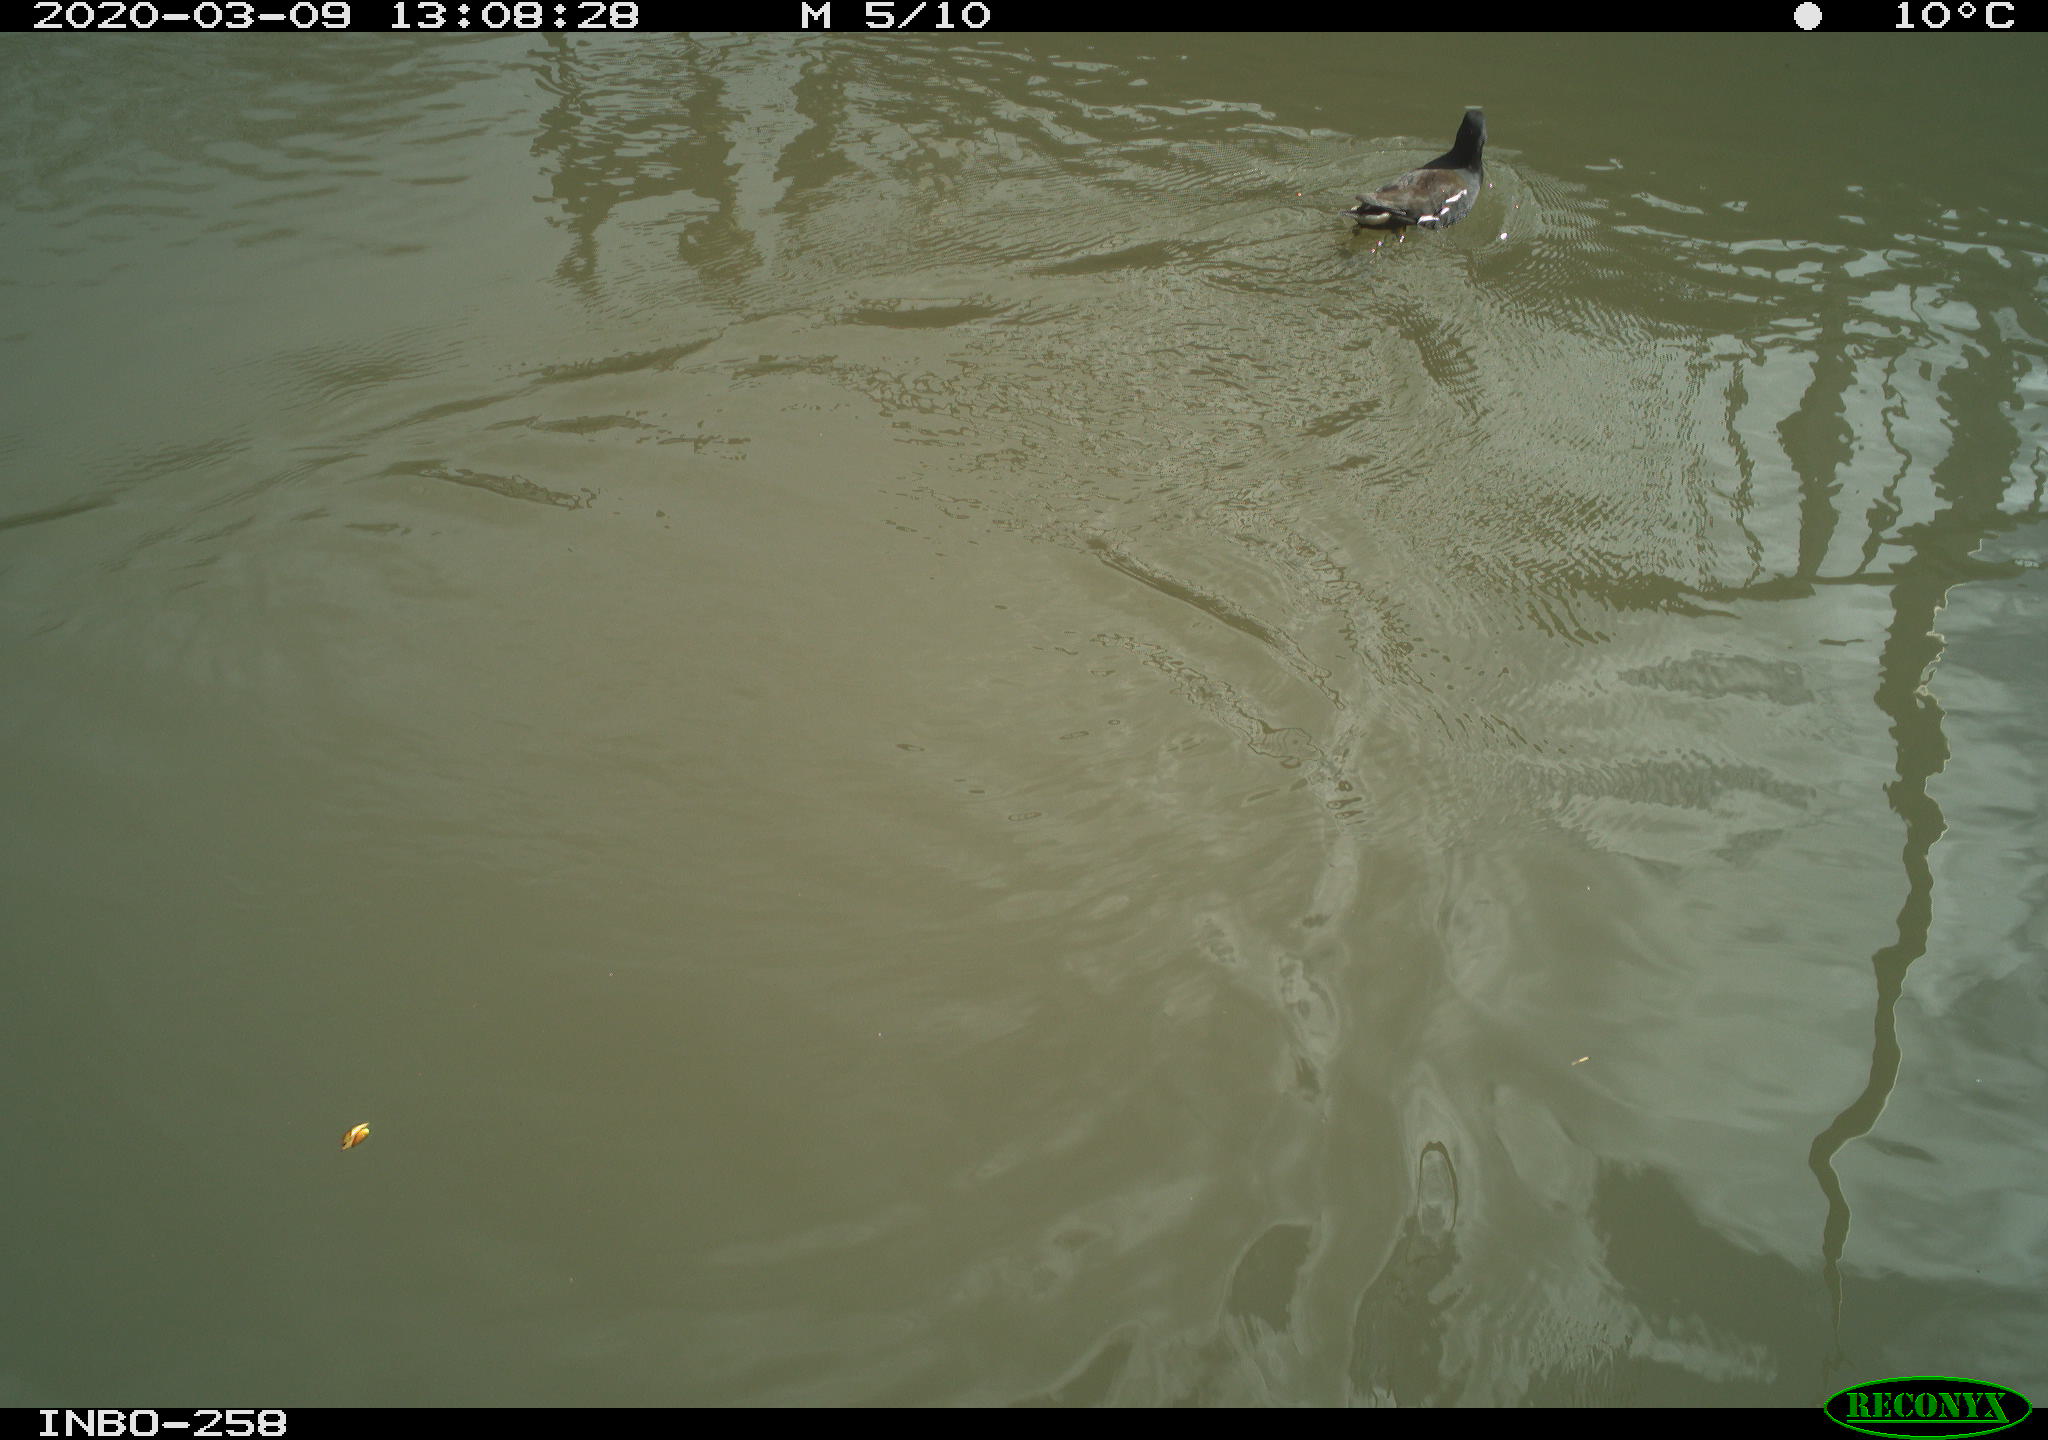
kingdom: Animalia
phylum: Chordata
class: Aves
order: Gruiformes
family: Rallidae
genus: Gallinula
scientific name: Gallinula chloropus
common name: Common moorhen
